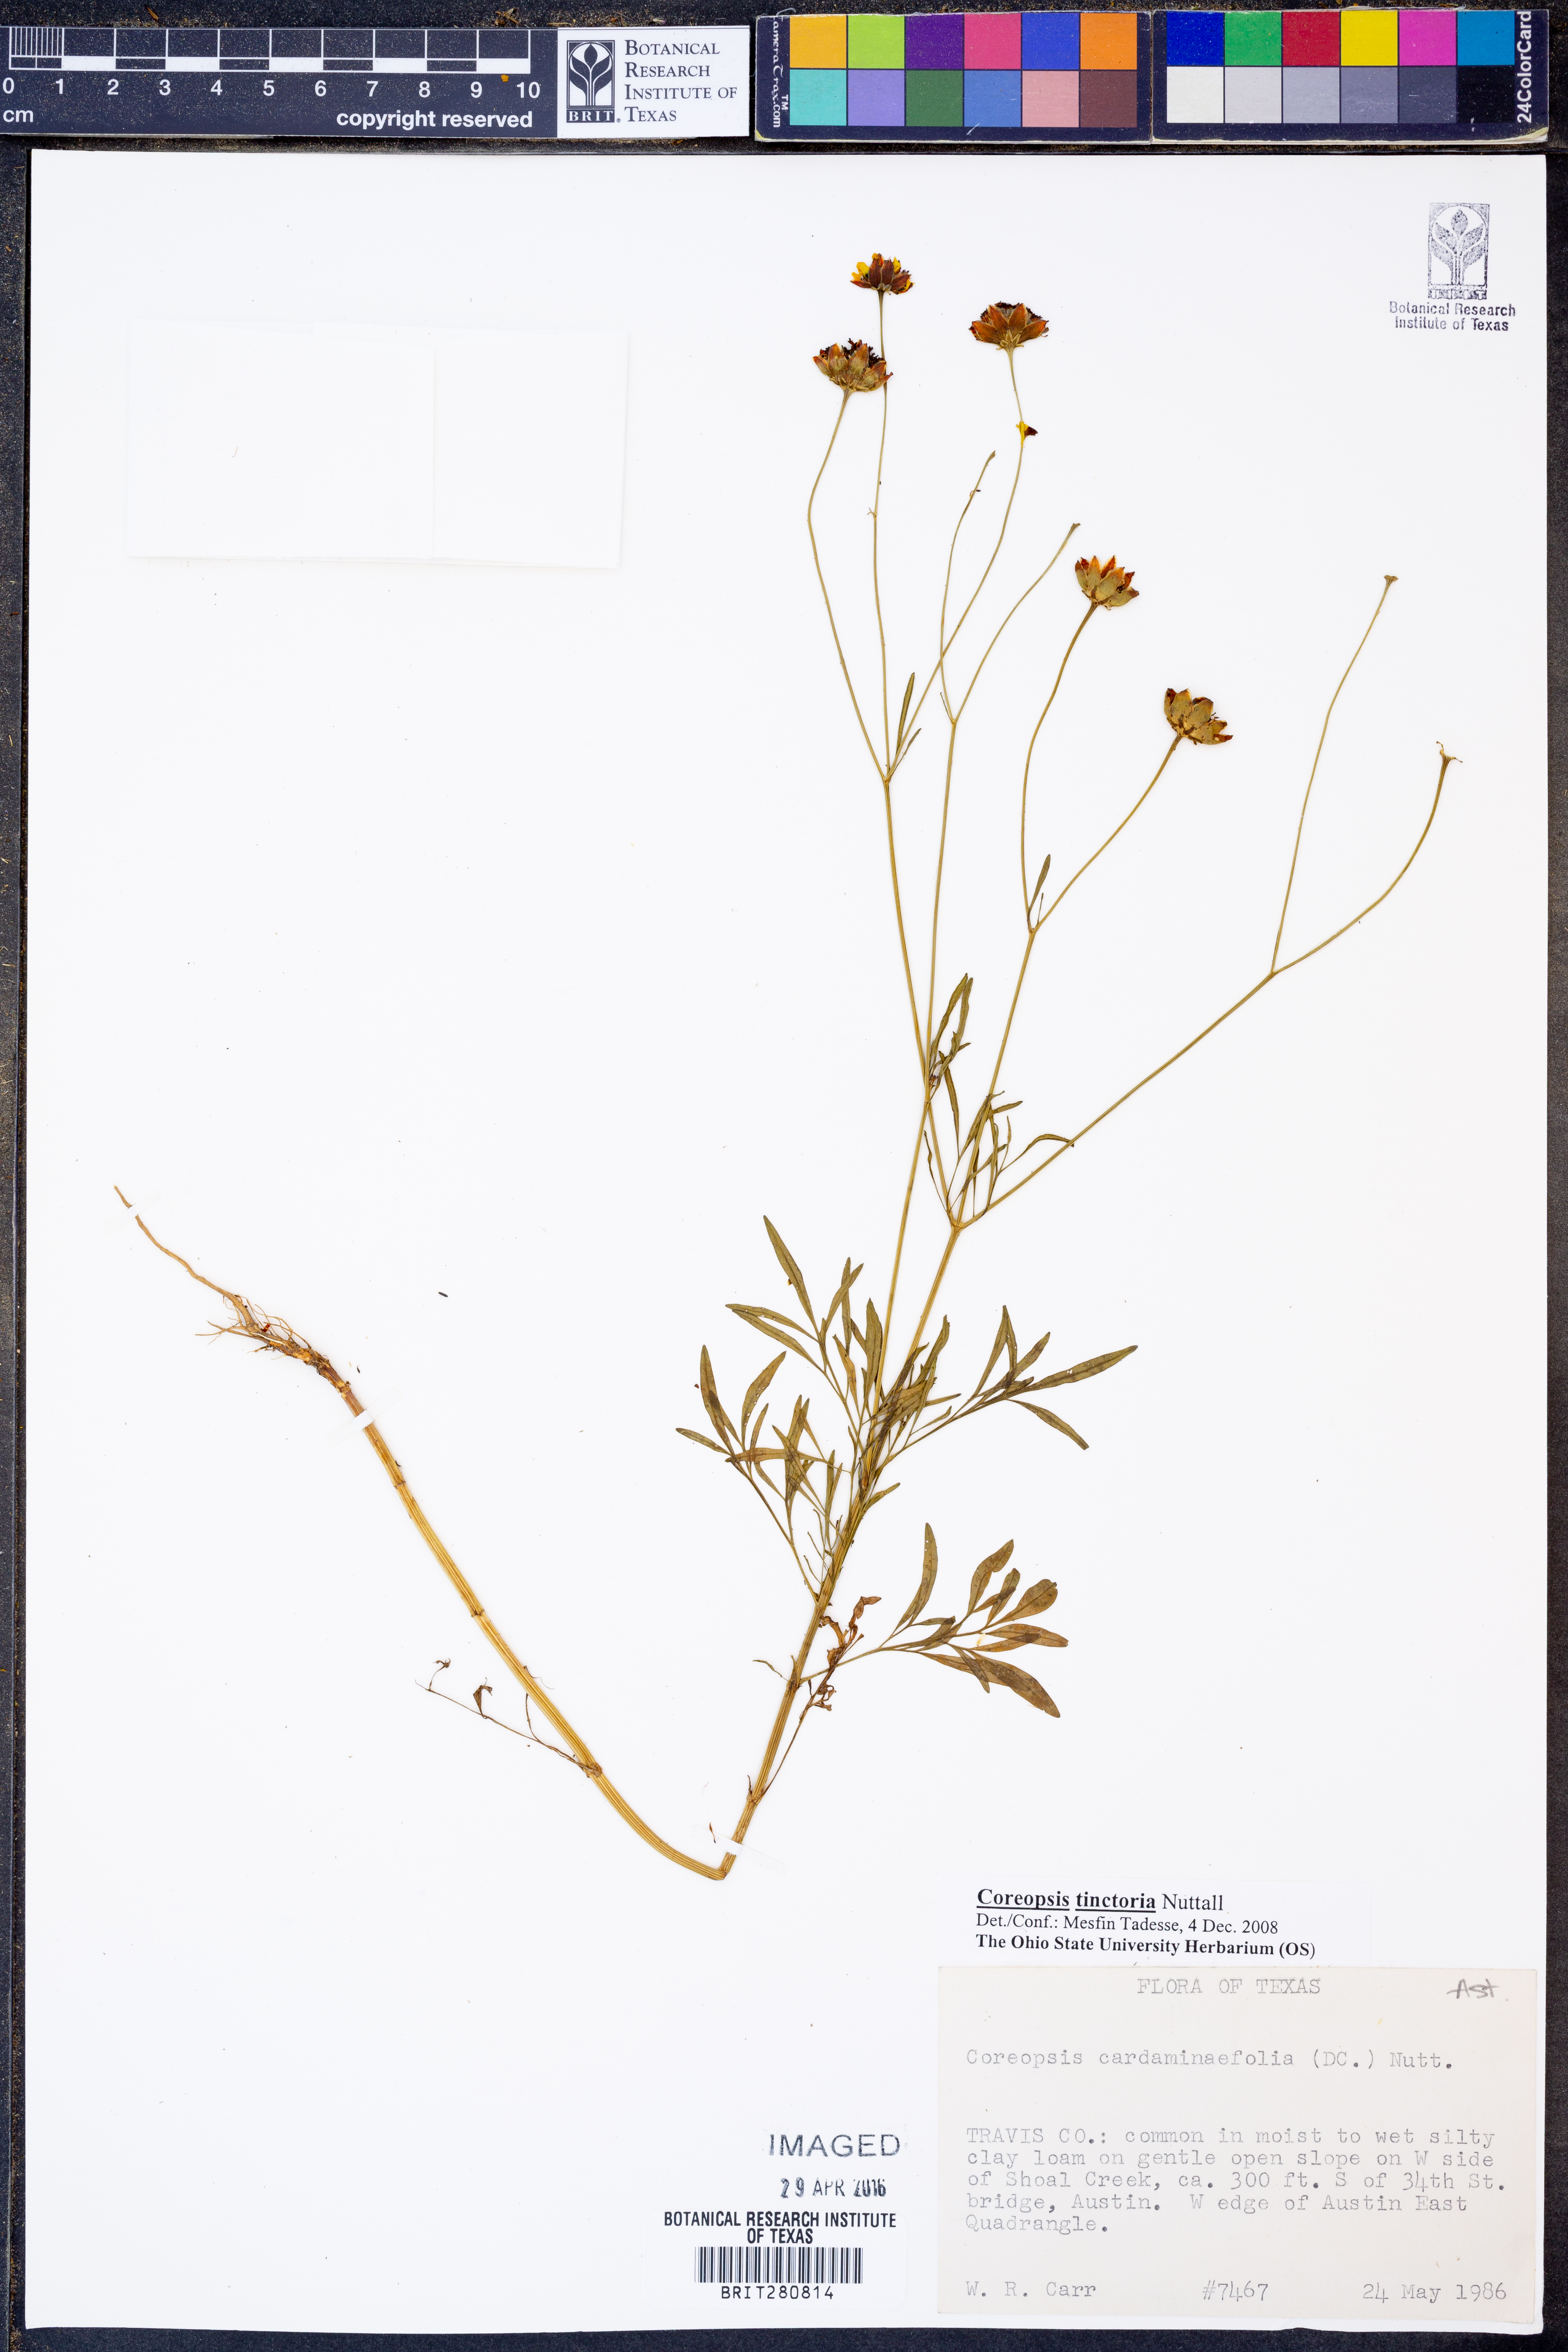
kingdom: Plantae
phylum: Tracheophyta
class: Magnoliopsida
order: Asterales
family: Asteraceae
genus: Coreopsis
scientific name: Coreopsis tinctoria
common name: Garden tickseed
